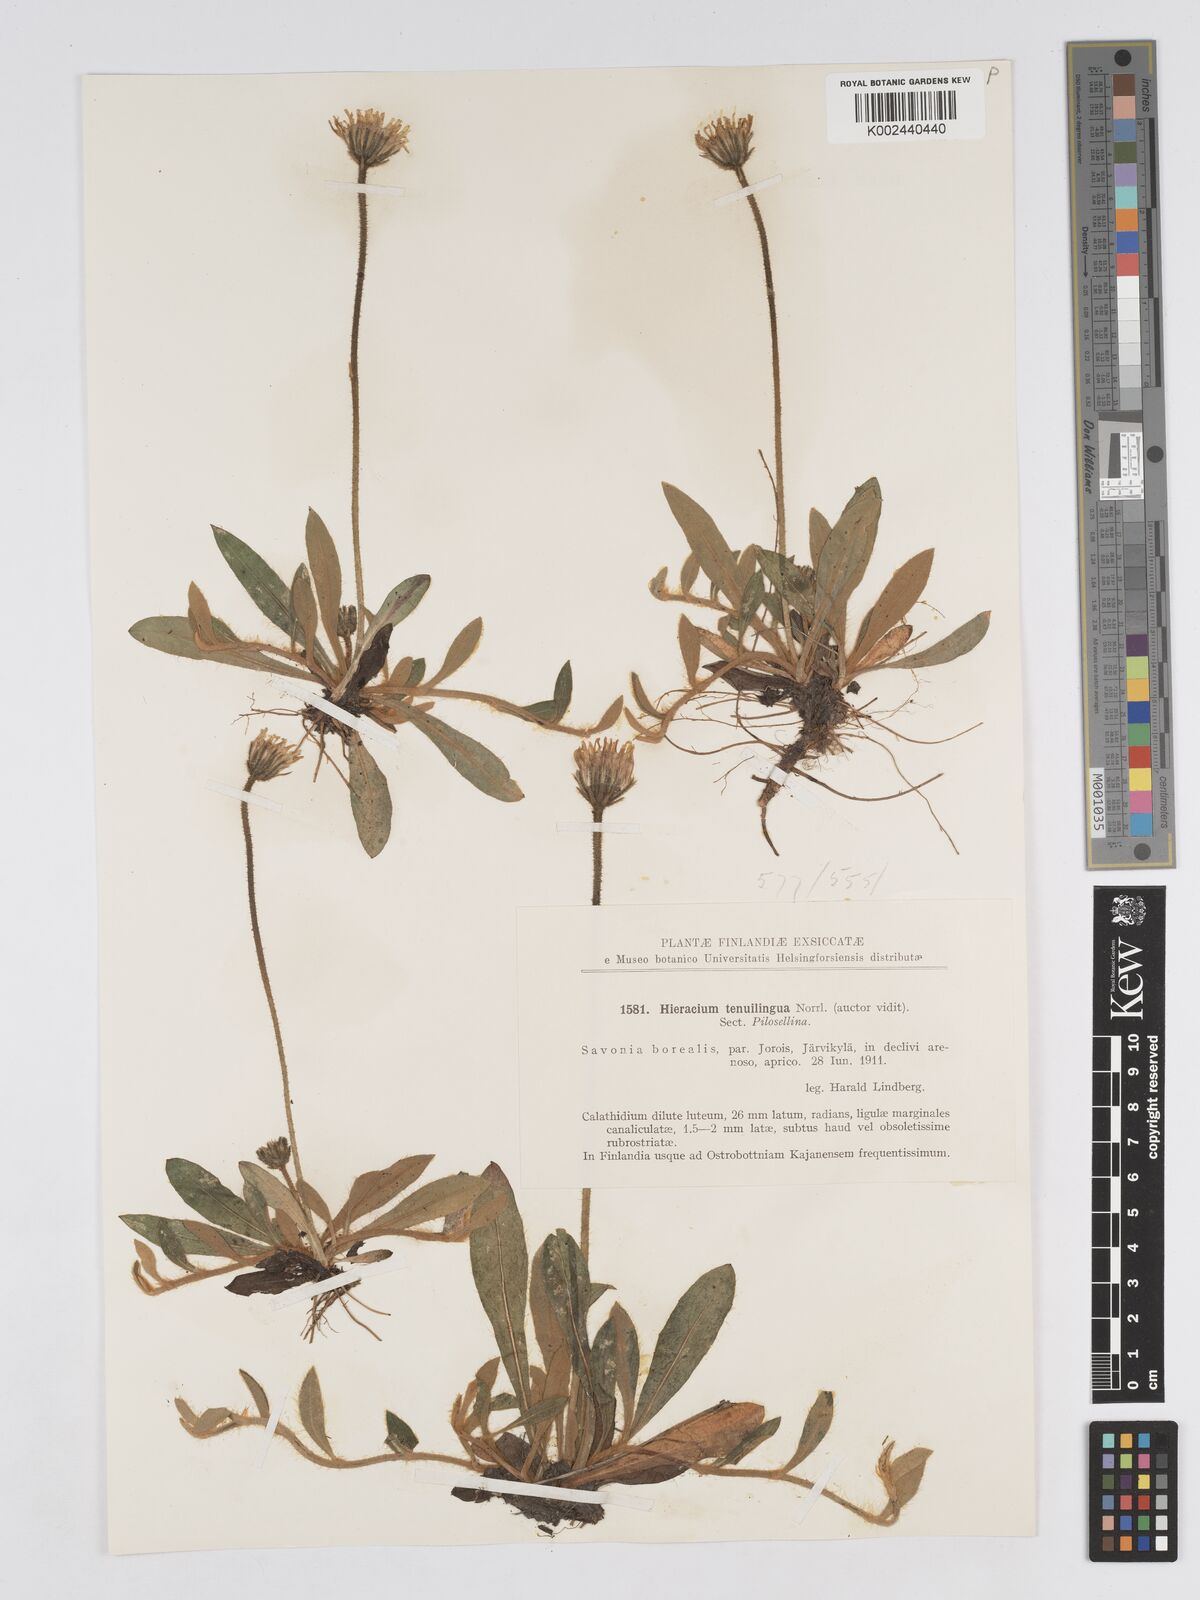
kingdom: Plantae
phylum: Tracheophyta
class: Magnoliopsida
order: Asterales
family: Asteraceae
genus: Pilosella
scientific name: Pilosella officinarum
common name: Mouse-ear hawkweed
